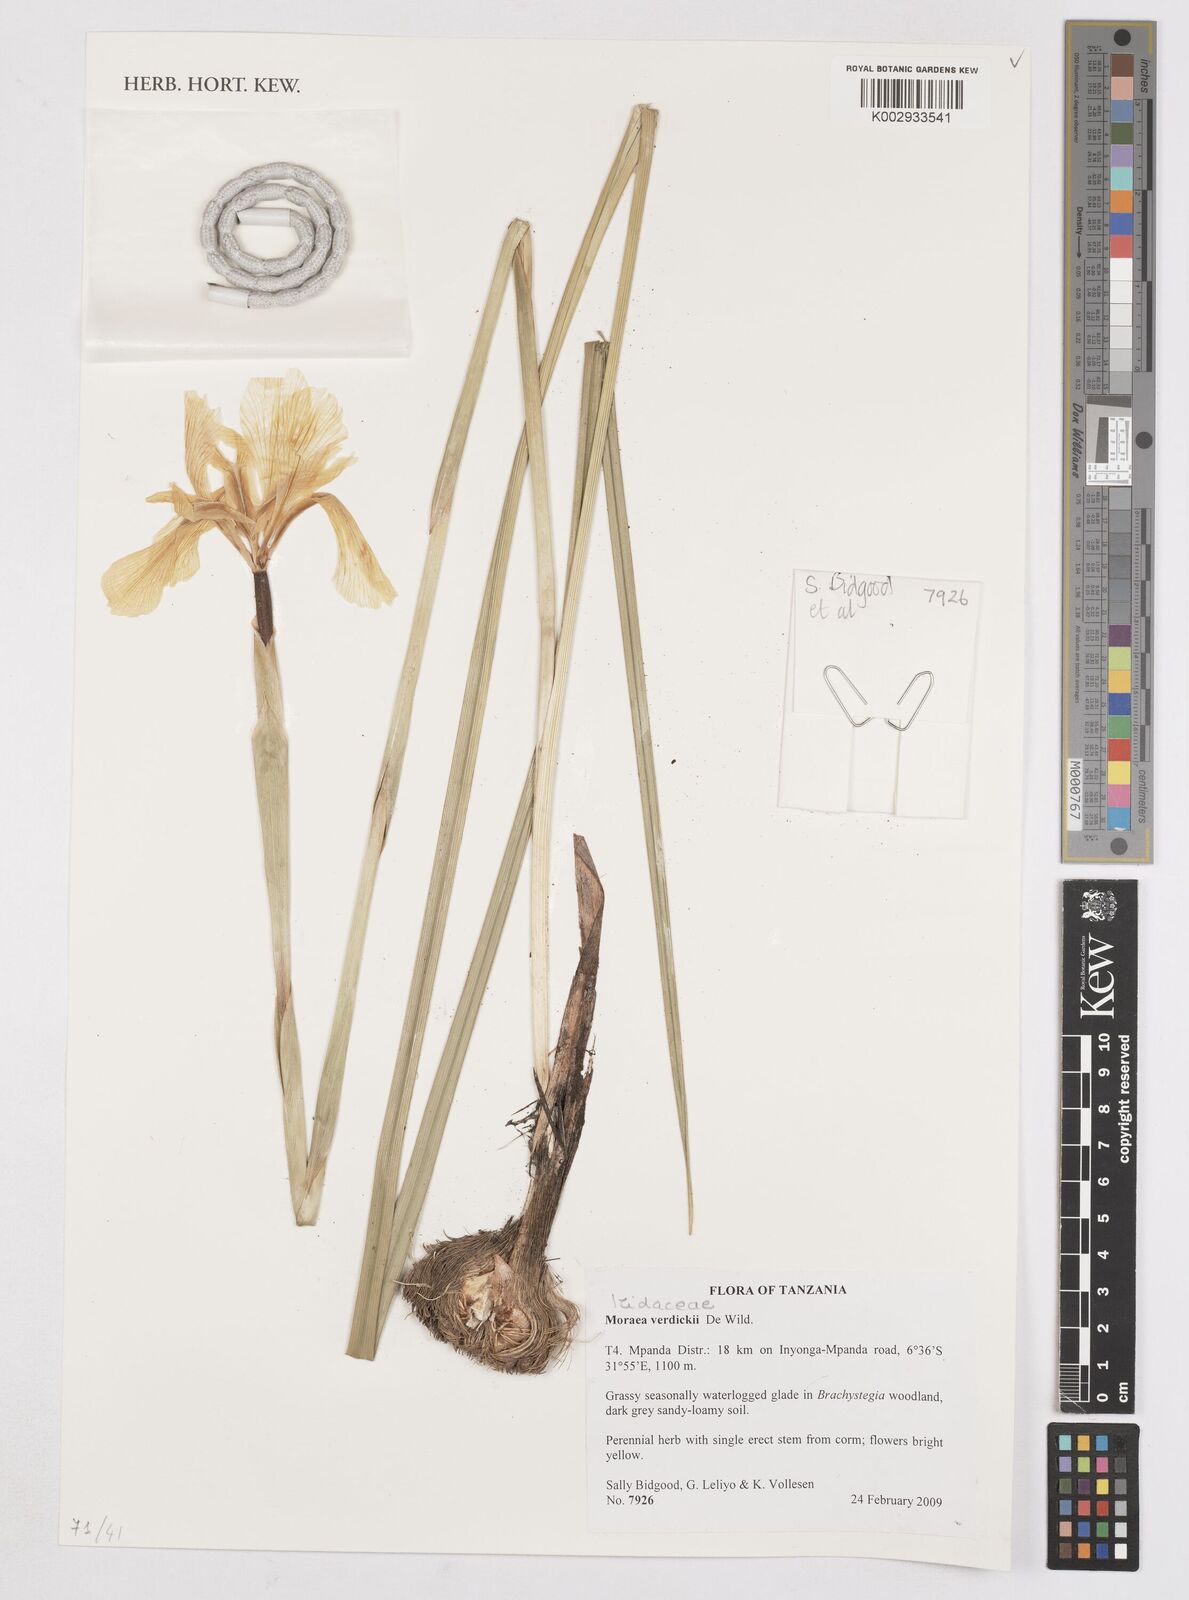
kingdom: Plantae
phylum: Tracheophyta
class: Liliopsida
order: Asparagales
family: Iridaceae
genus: Moraea
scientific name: Moraea verdickii
